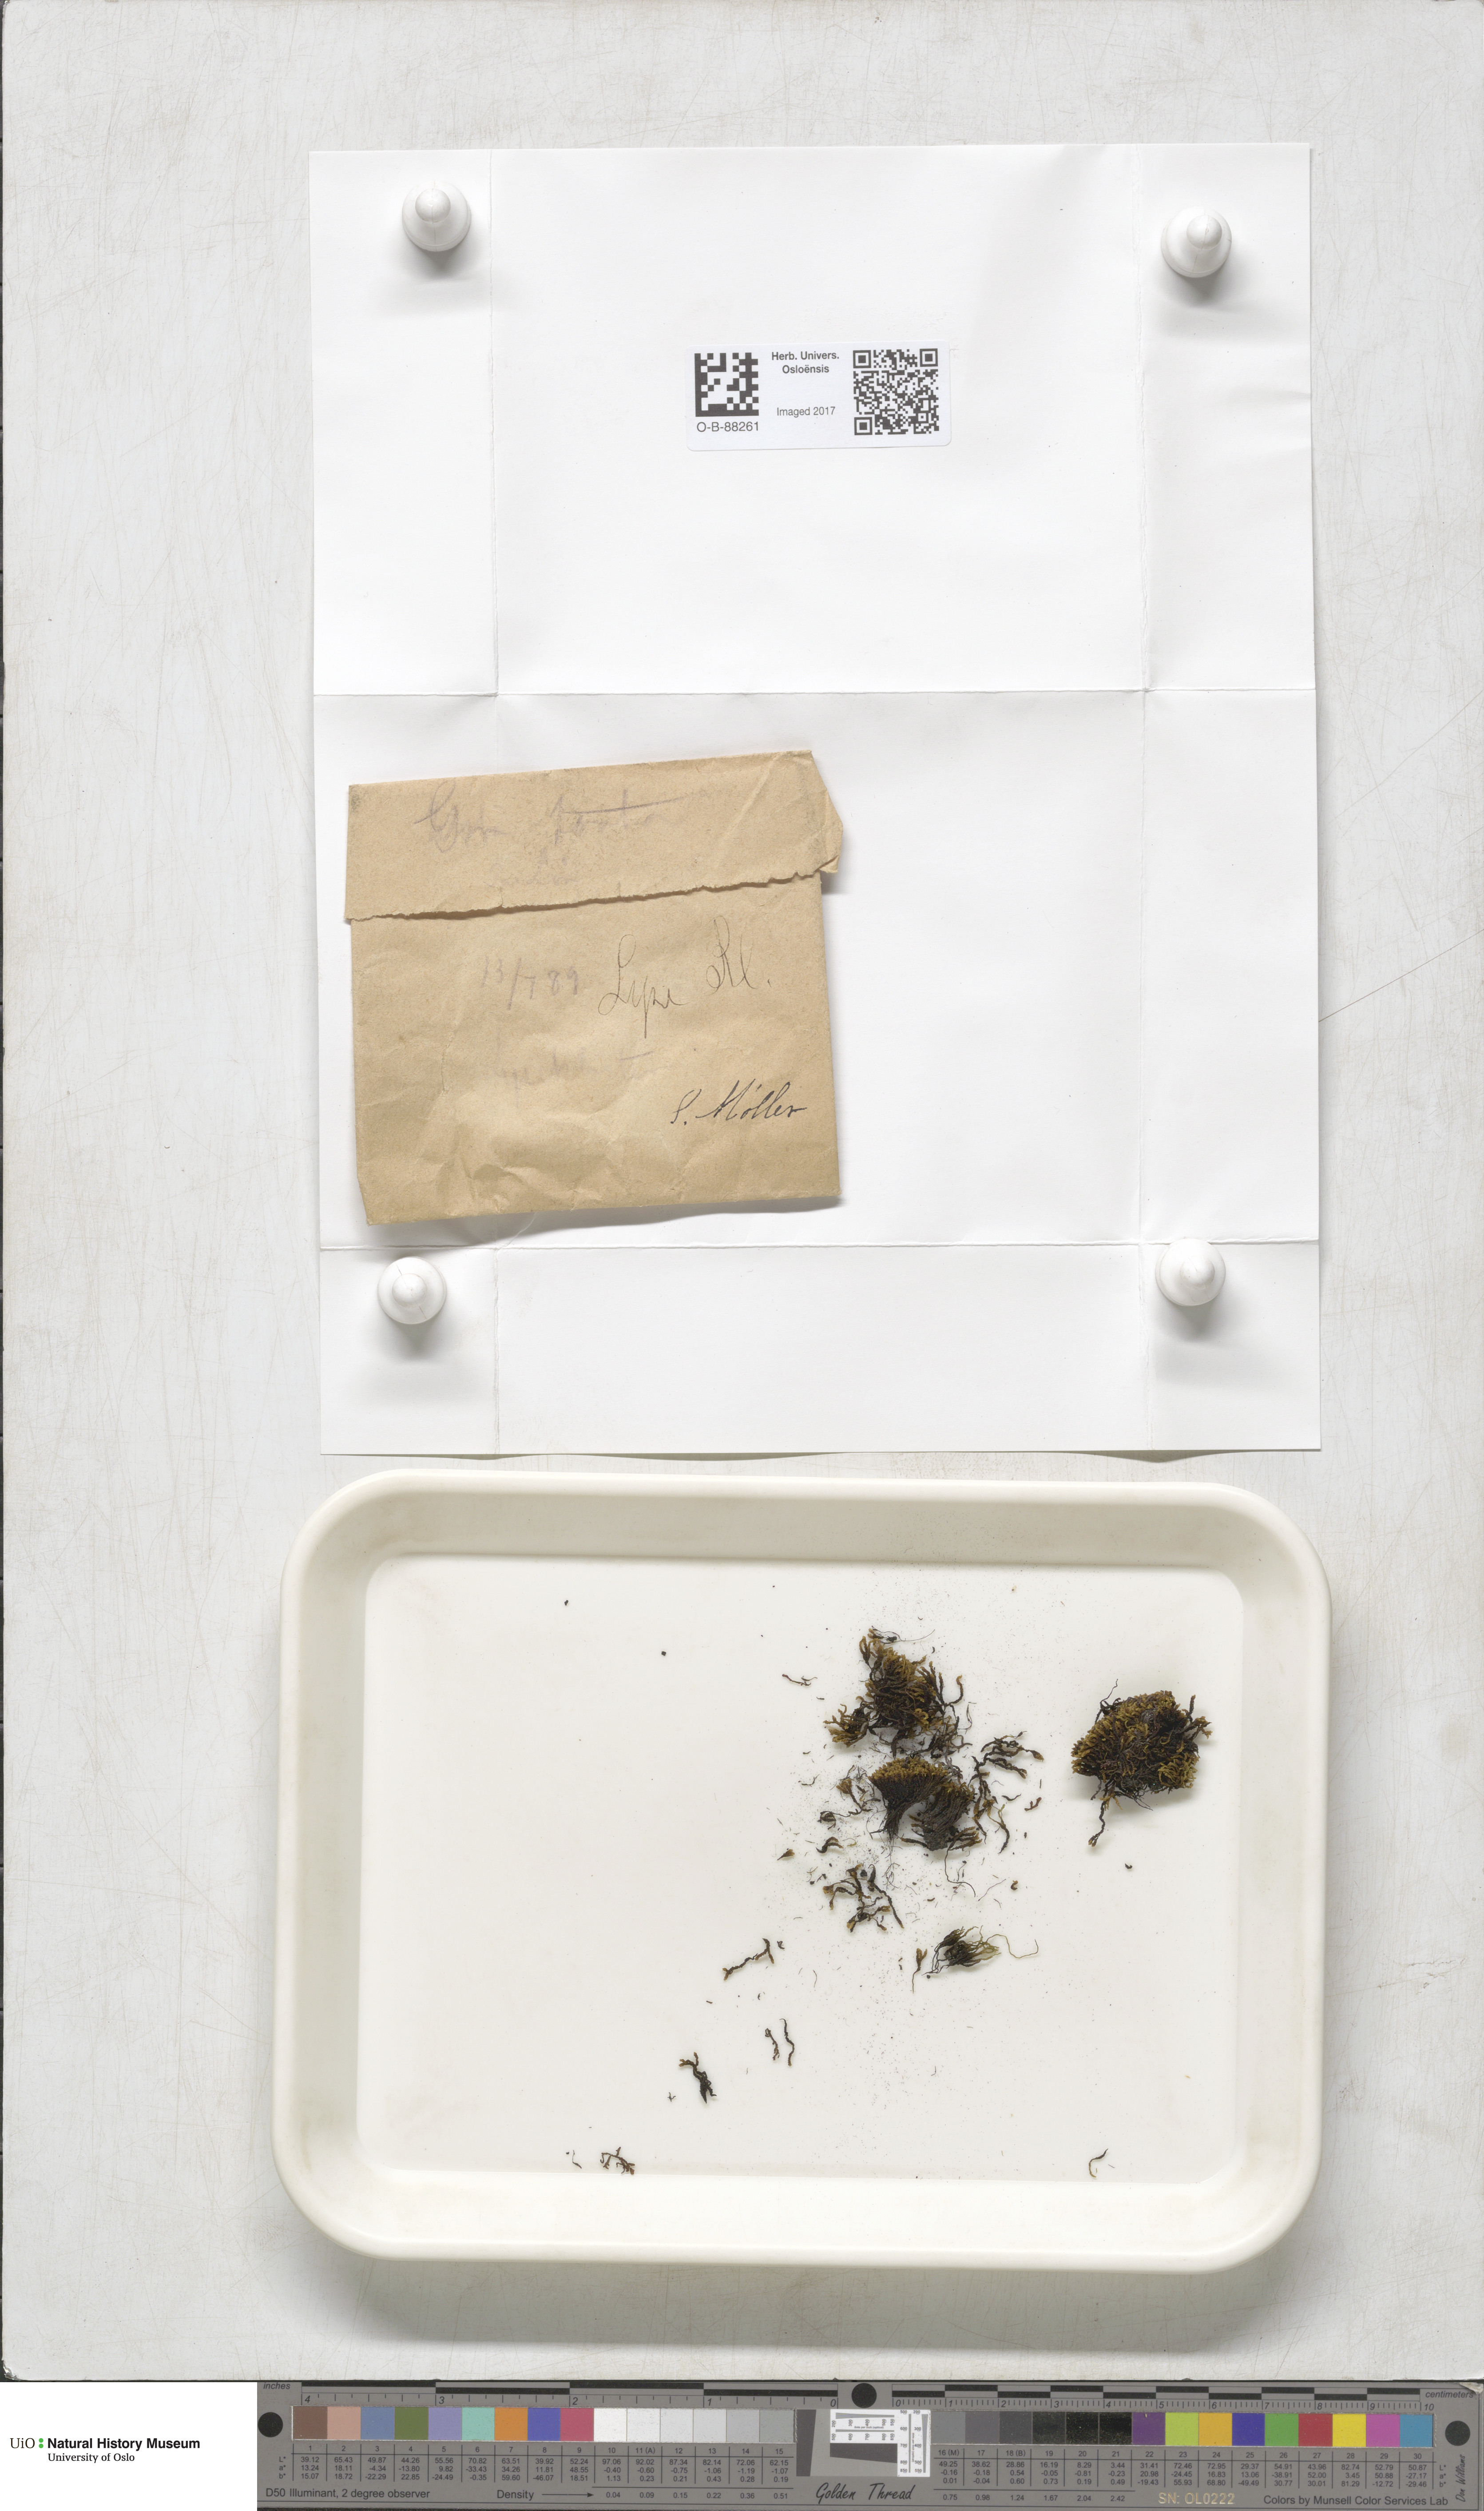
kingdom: Plantae
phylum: Bryophyta
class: Bryopsida
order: Grimmiales
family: Grimmiaceae
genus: Grimmia
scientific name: Grimmia torquata
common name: Twisted grimmia
